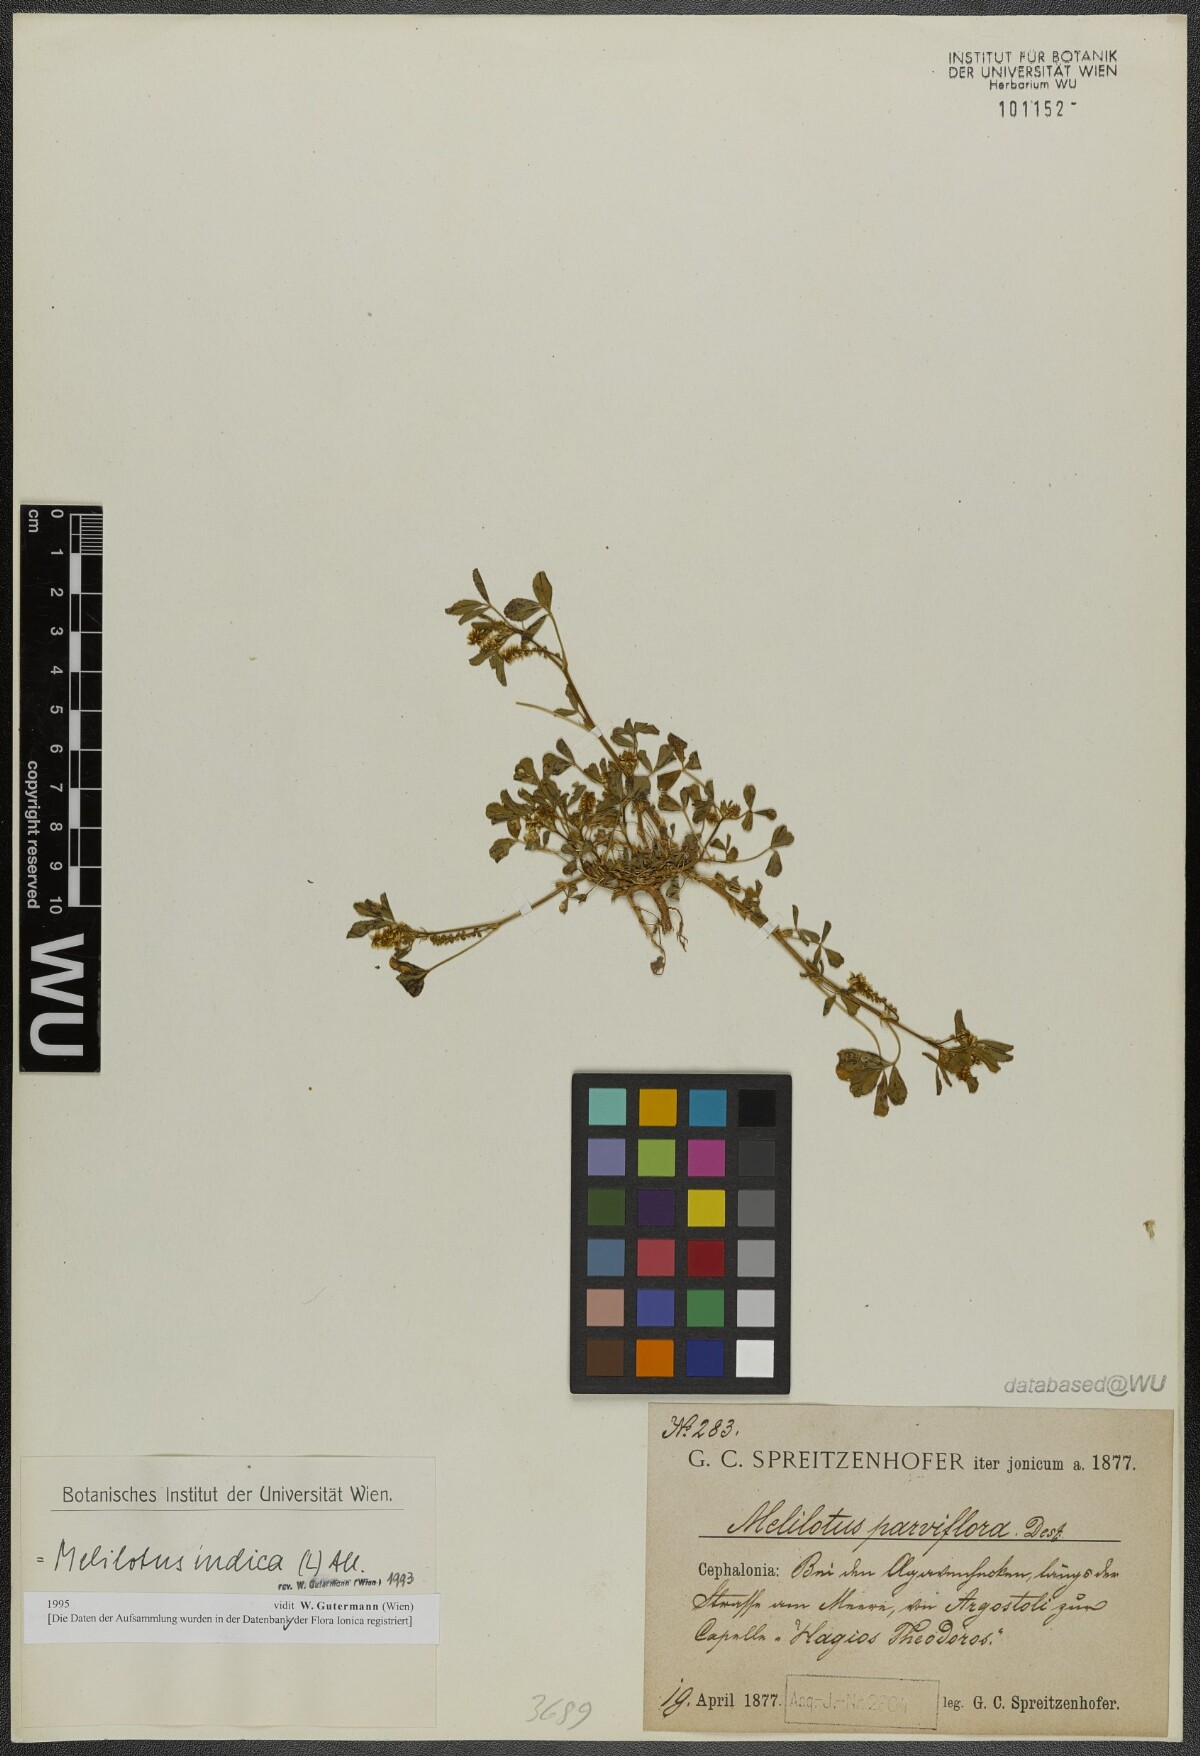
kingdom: Plantae
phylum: Tracheophyta
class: Magnoliopsida
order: Fabales
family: Fabaceae
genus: Melilotus
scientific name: Melilotus indicus
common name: Small melilot
